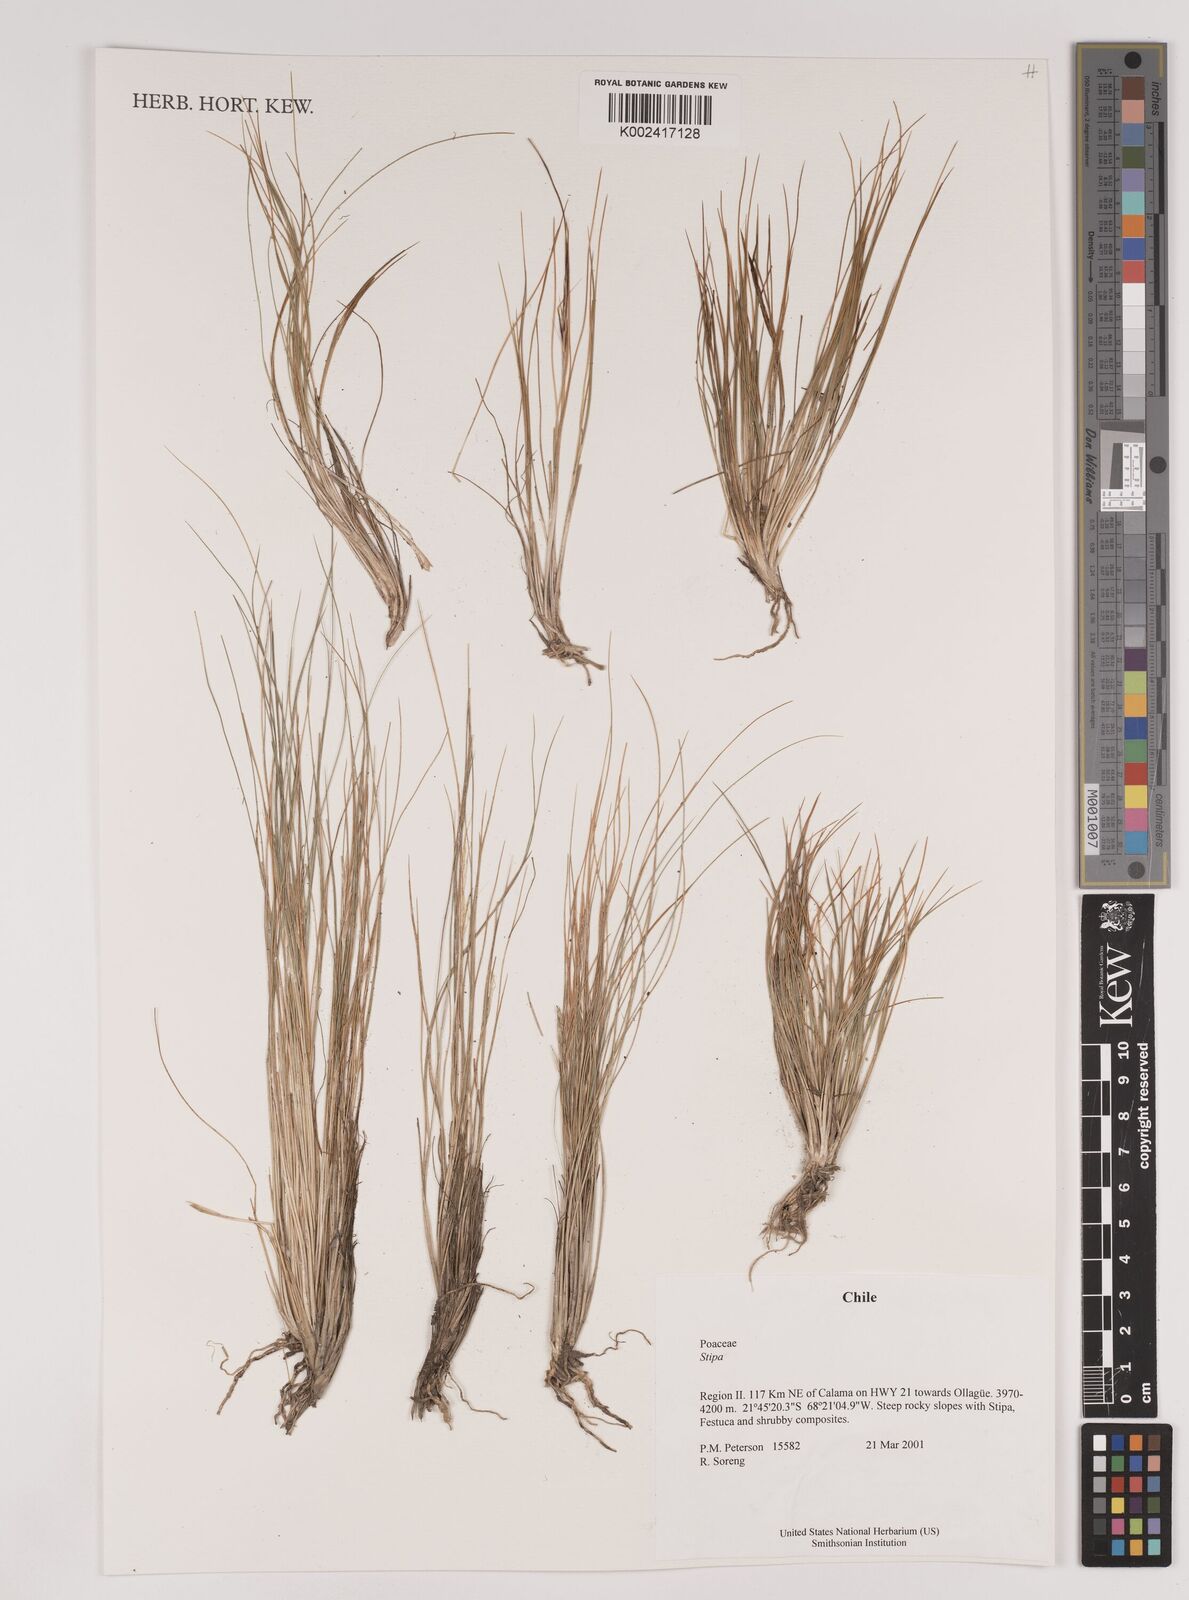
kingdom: Plantae
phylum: Tracheophyta
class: Liliopsida
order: Poales
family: Poaceae
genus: Stipa
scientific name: Stipa
